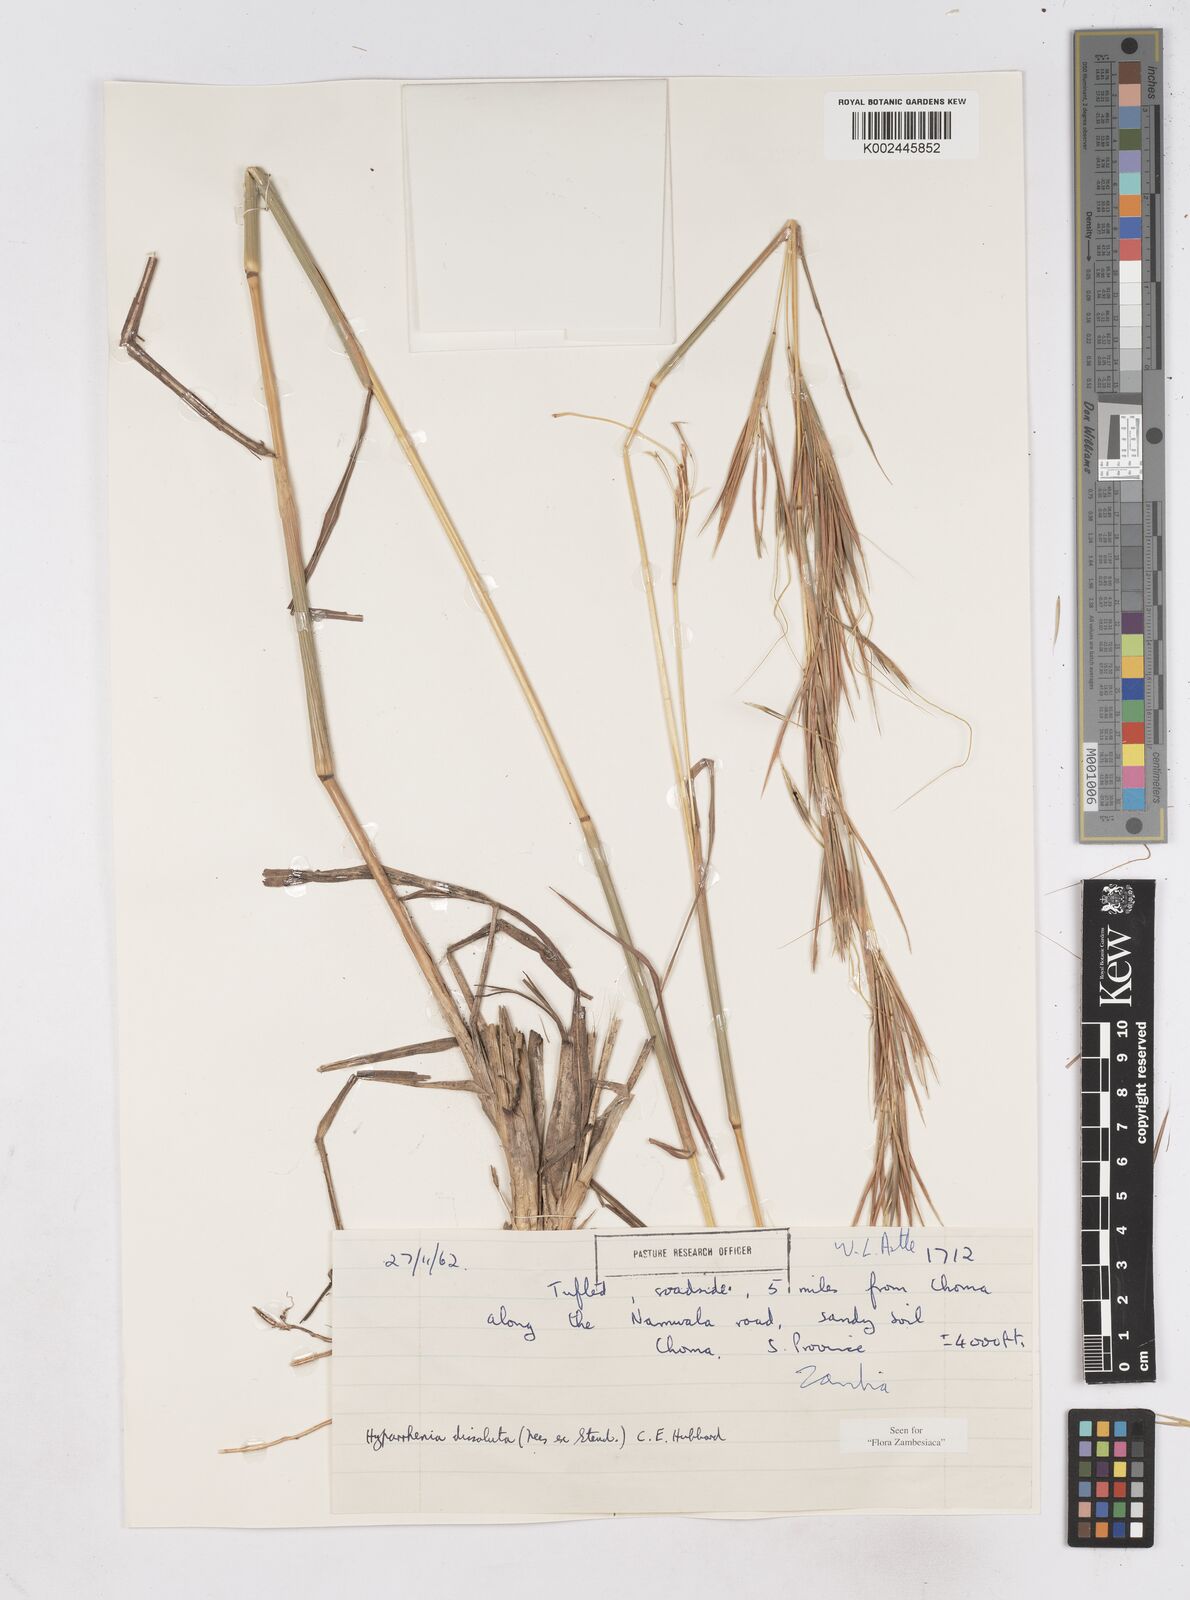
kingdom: Plantae
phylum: Tracheophyta
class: Liliopsida
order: Poales
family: Poaceae
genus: Hyperthelia
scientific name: Hyperthelia dissoluta
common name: Yellow thatching grass
